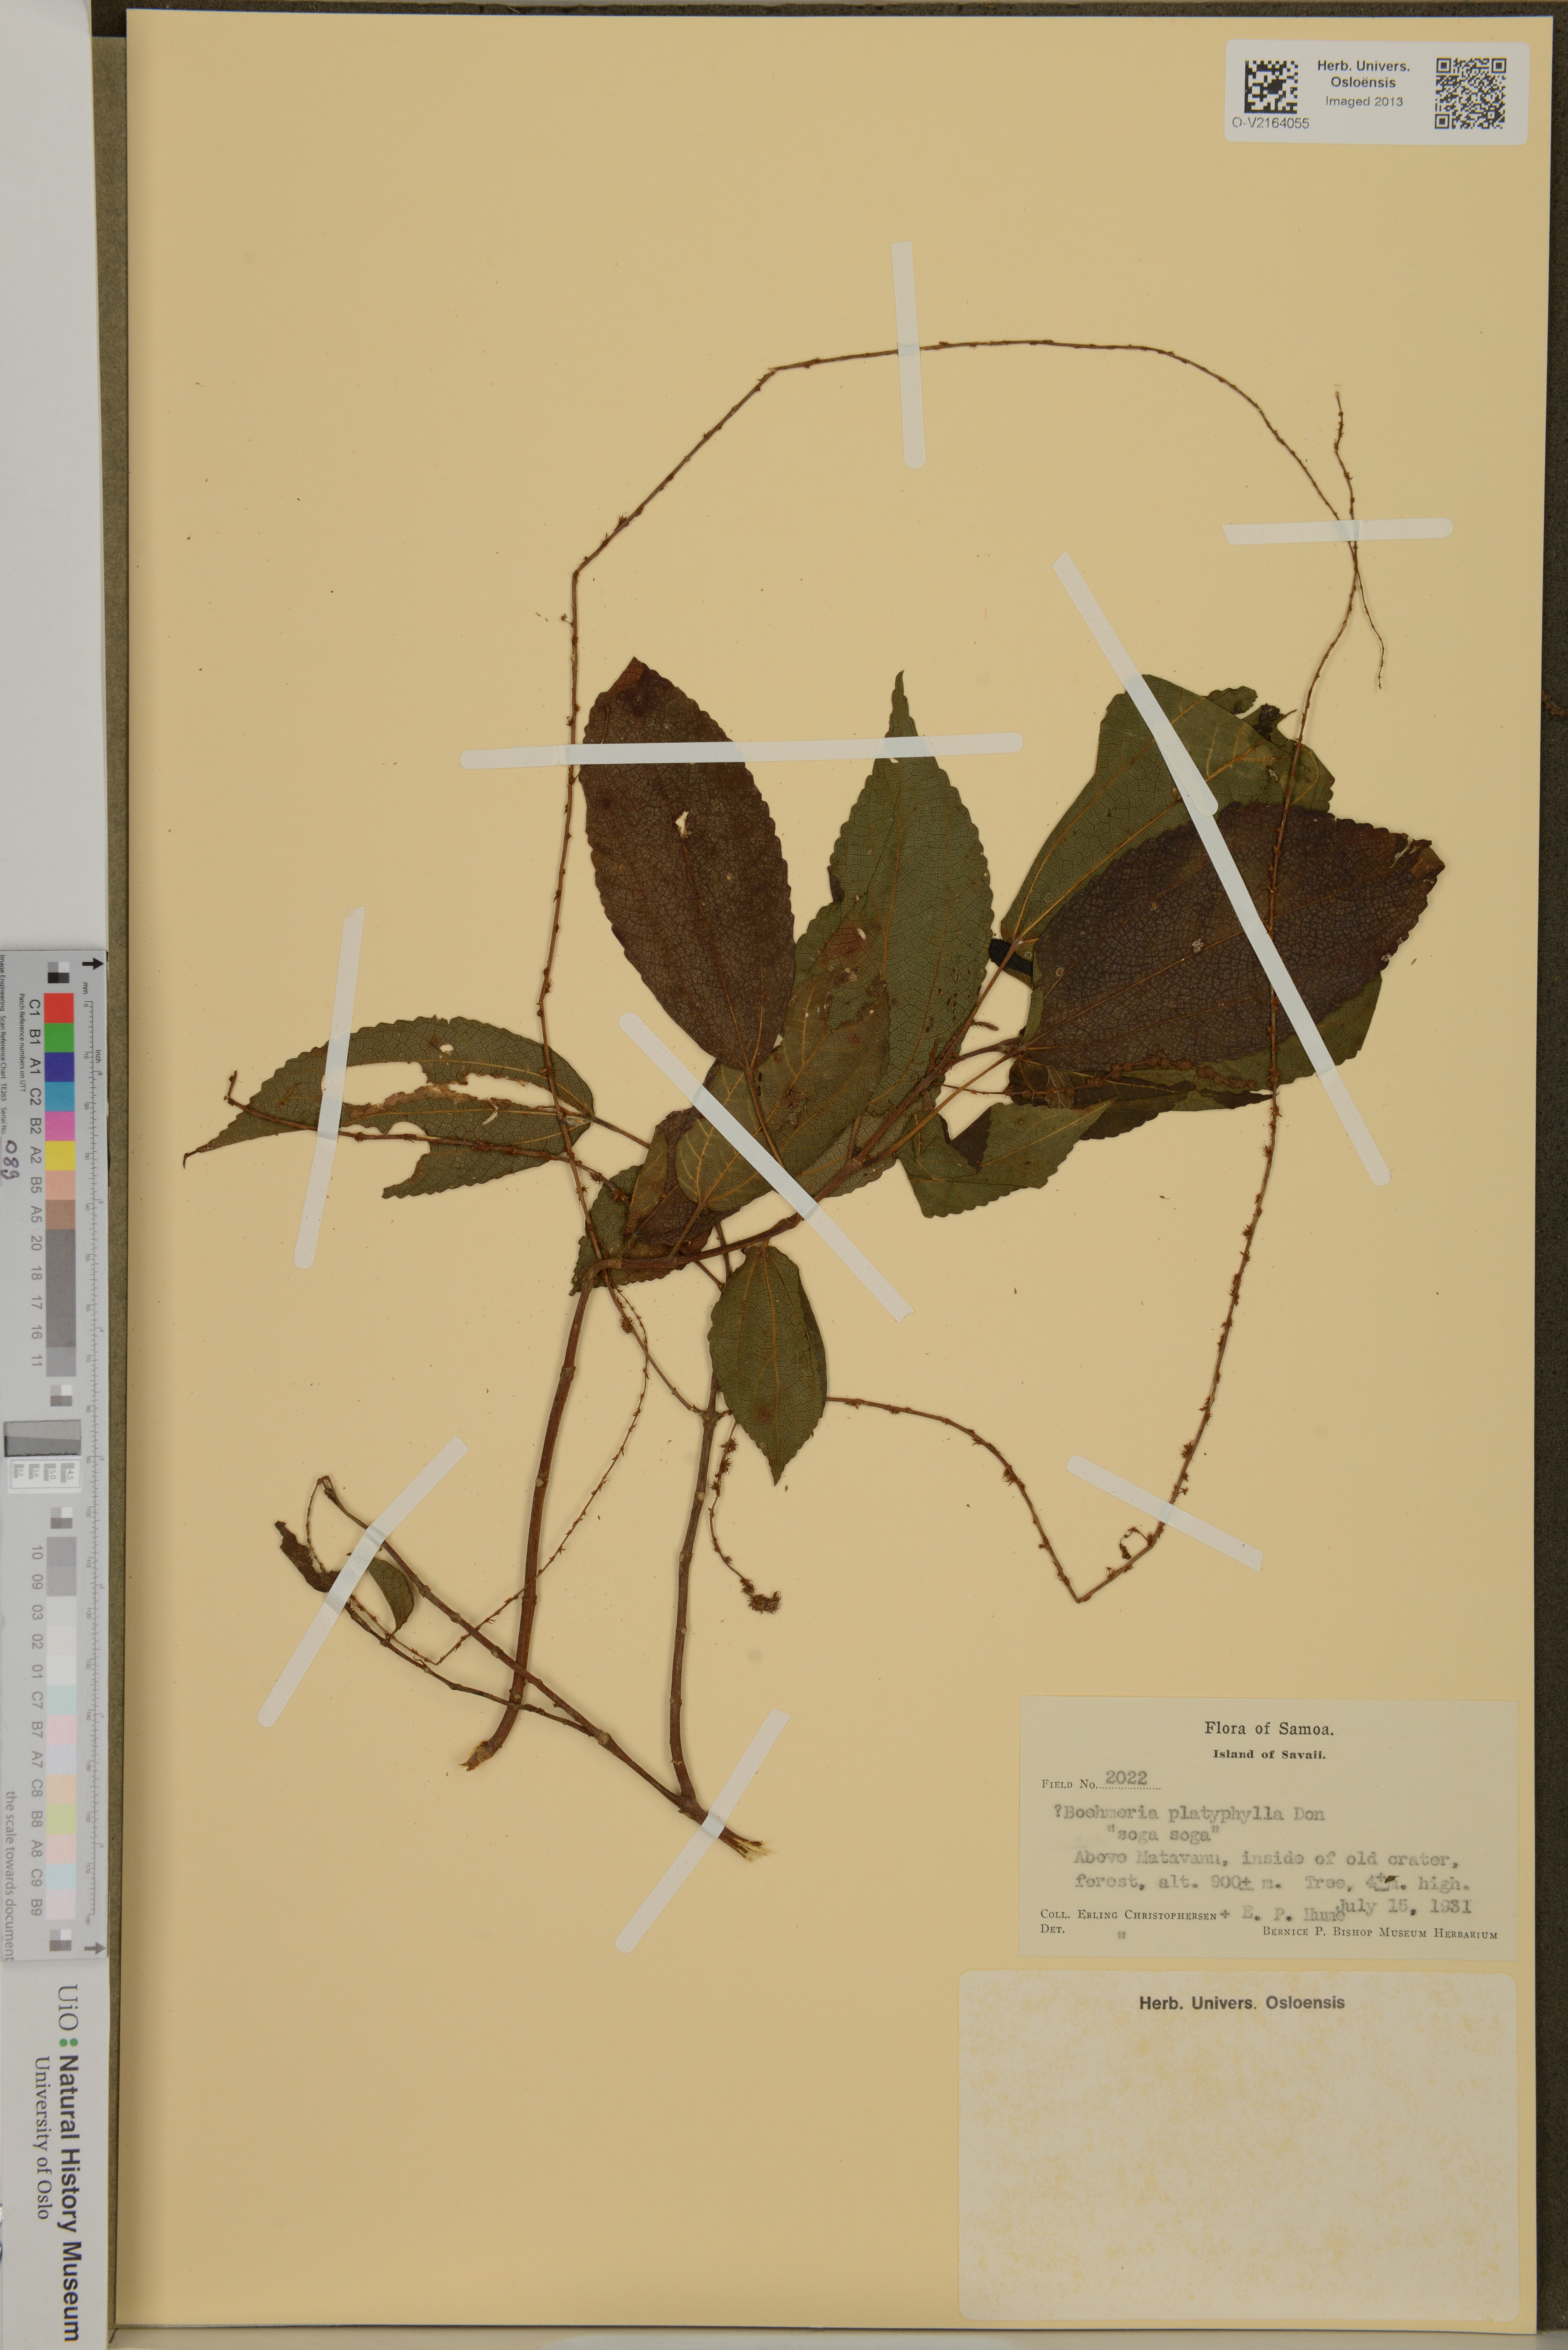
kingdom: Plantae
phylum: Tracheophyta
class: Magnoliopsida
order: Rosales
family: Urticaceae
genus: Boehmeria
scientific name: Boehmeria virgata
